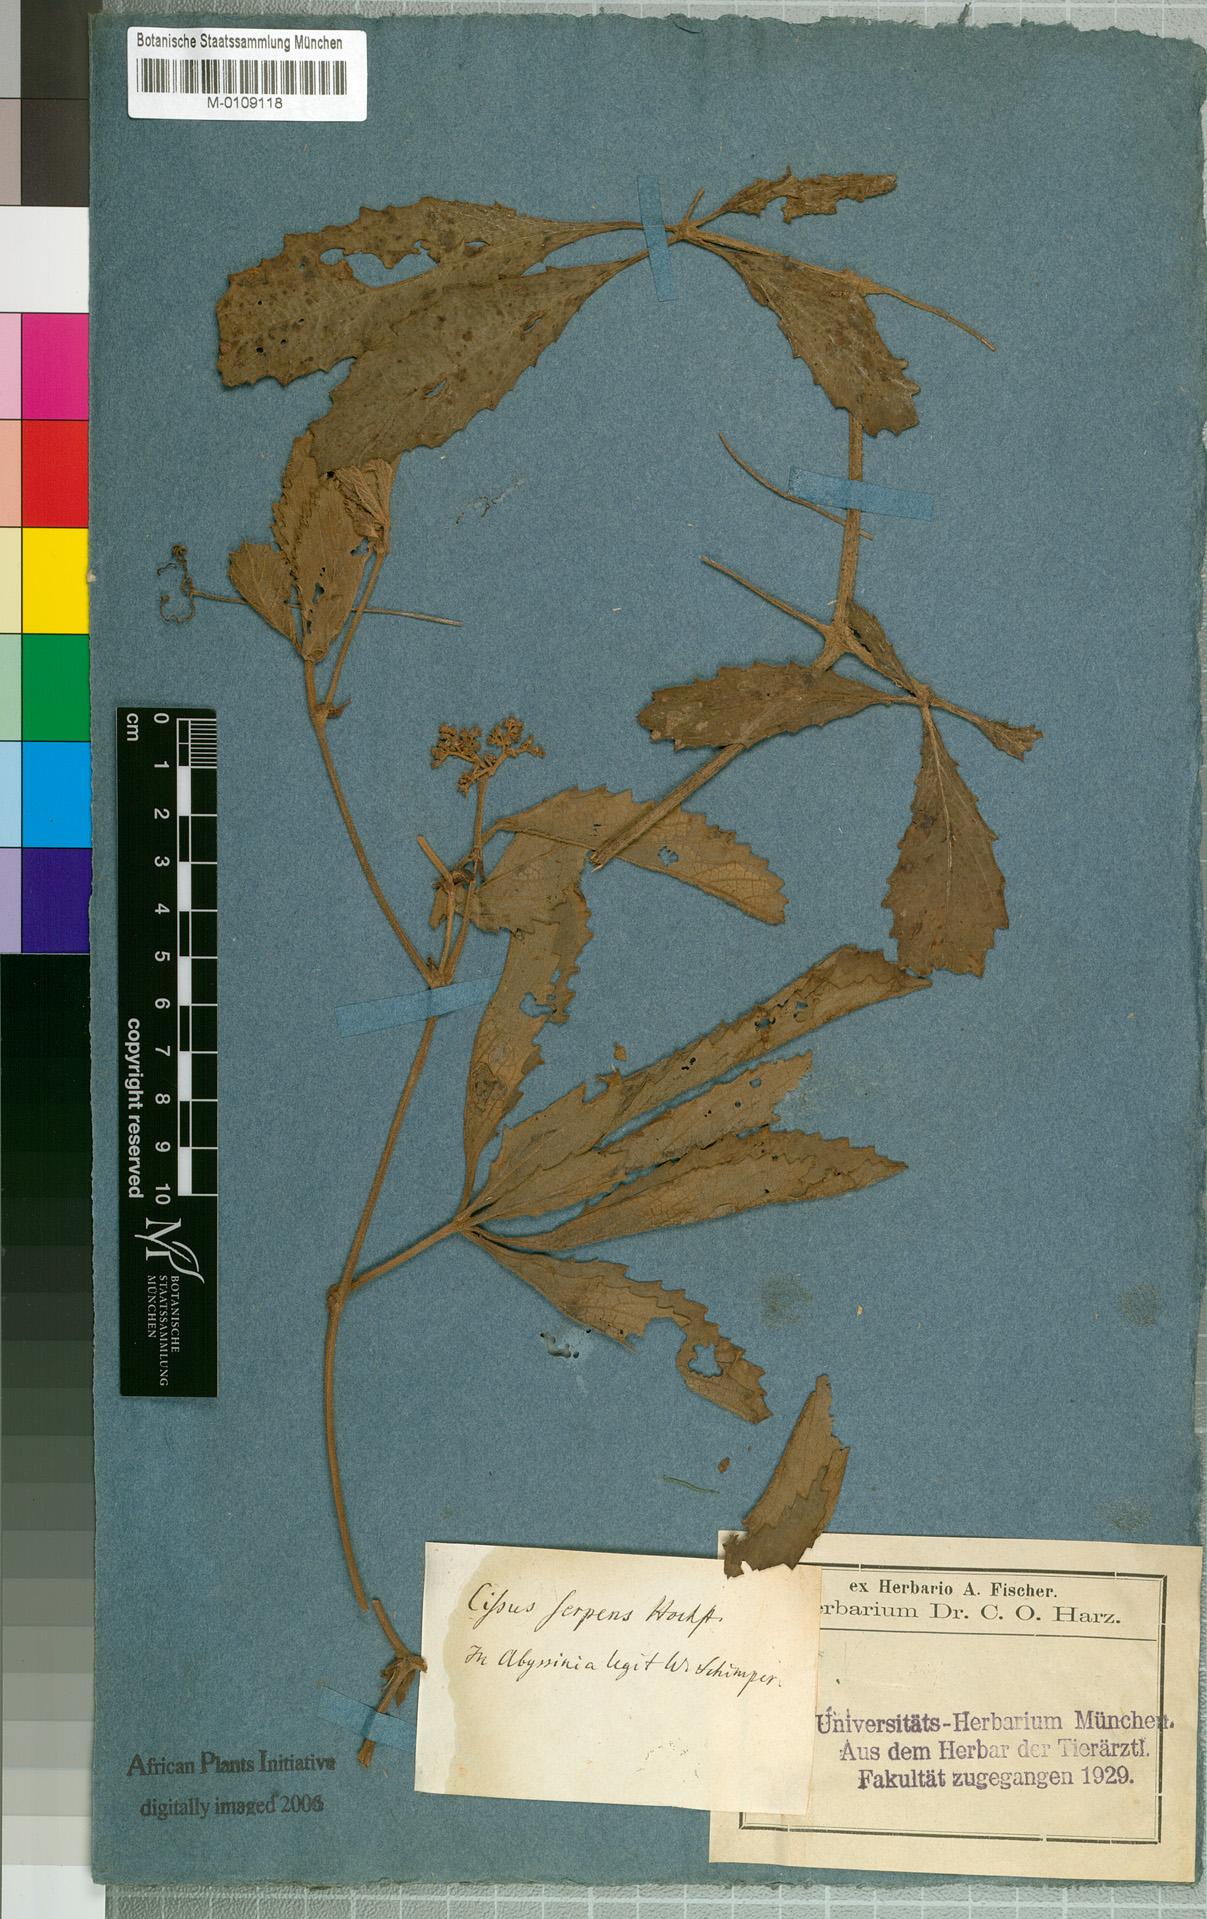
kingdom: Plantae
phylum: Tracheophyta
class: Magnoliopsida
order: Vitales
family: Vitaceae
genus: Cyphostemma
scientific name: Cyphostemma serpens
